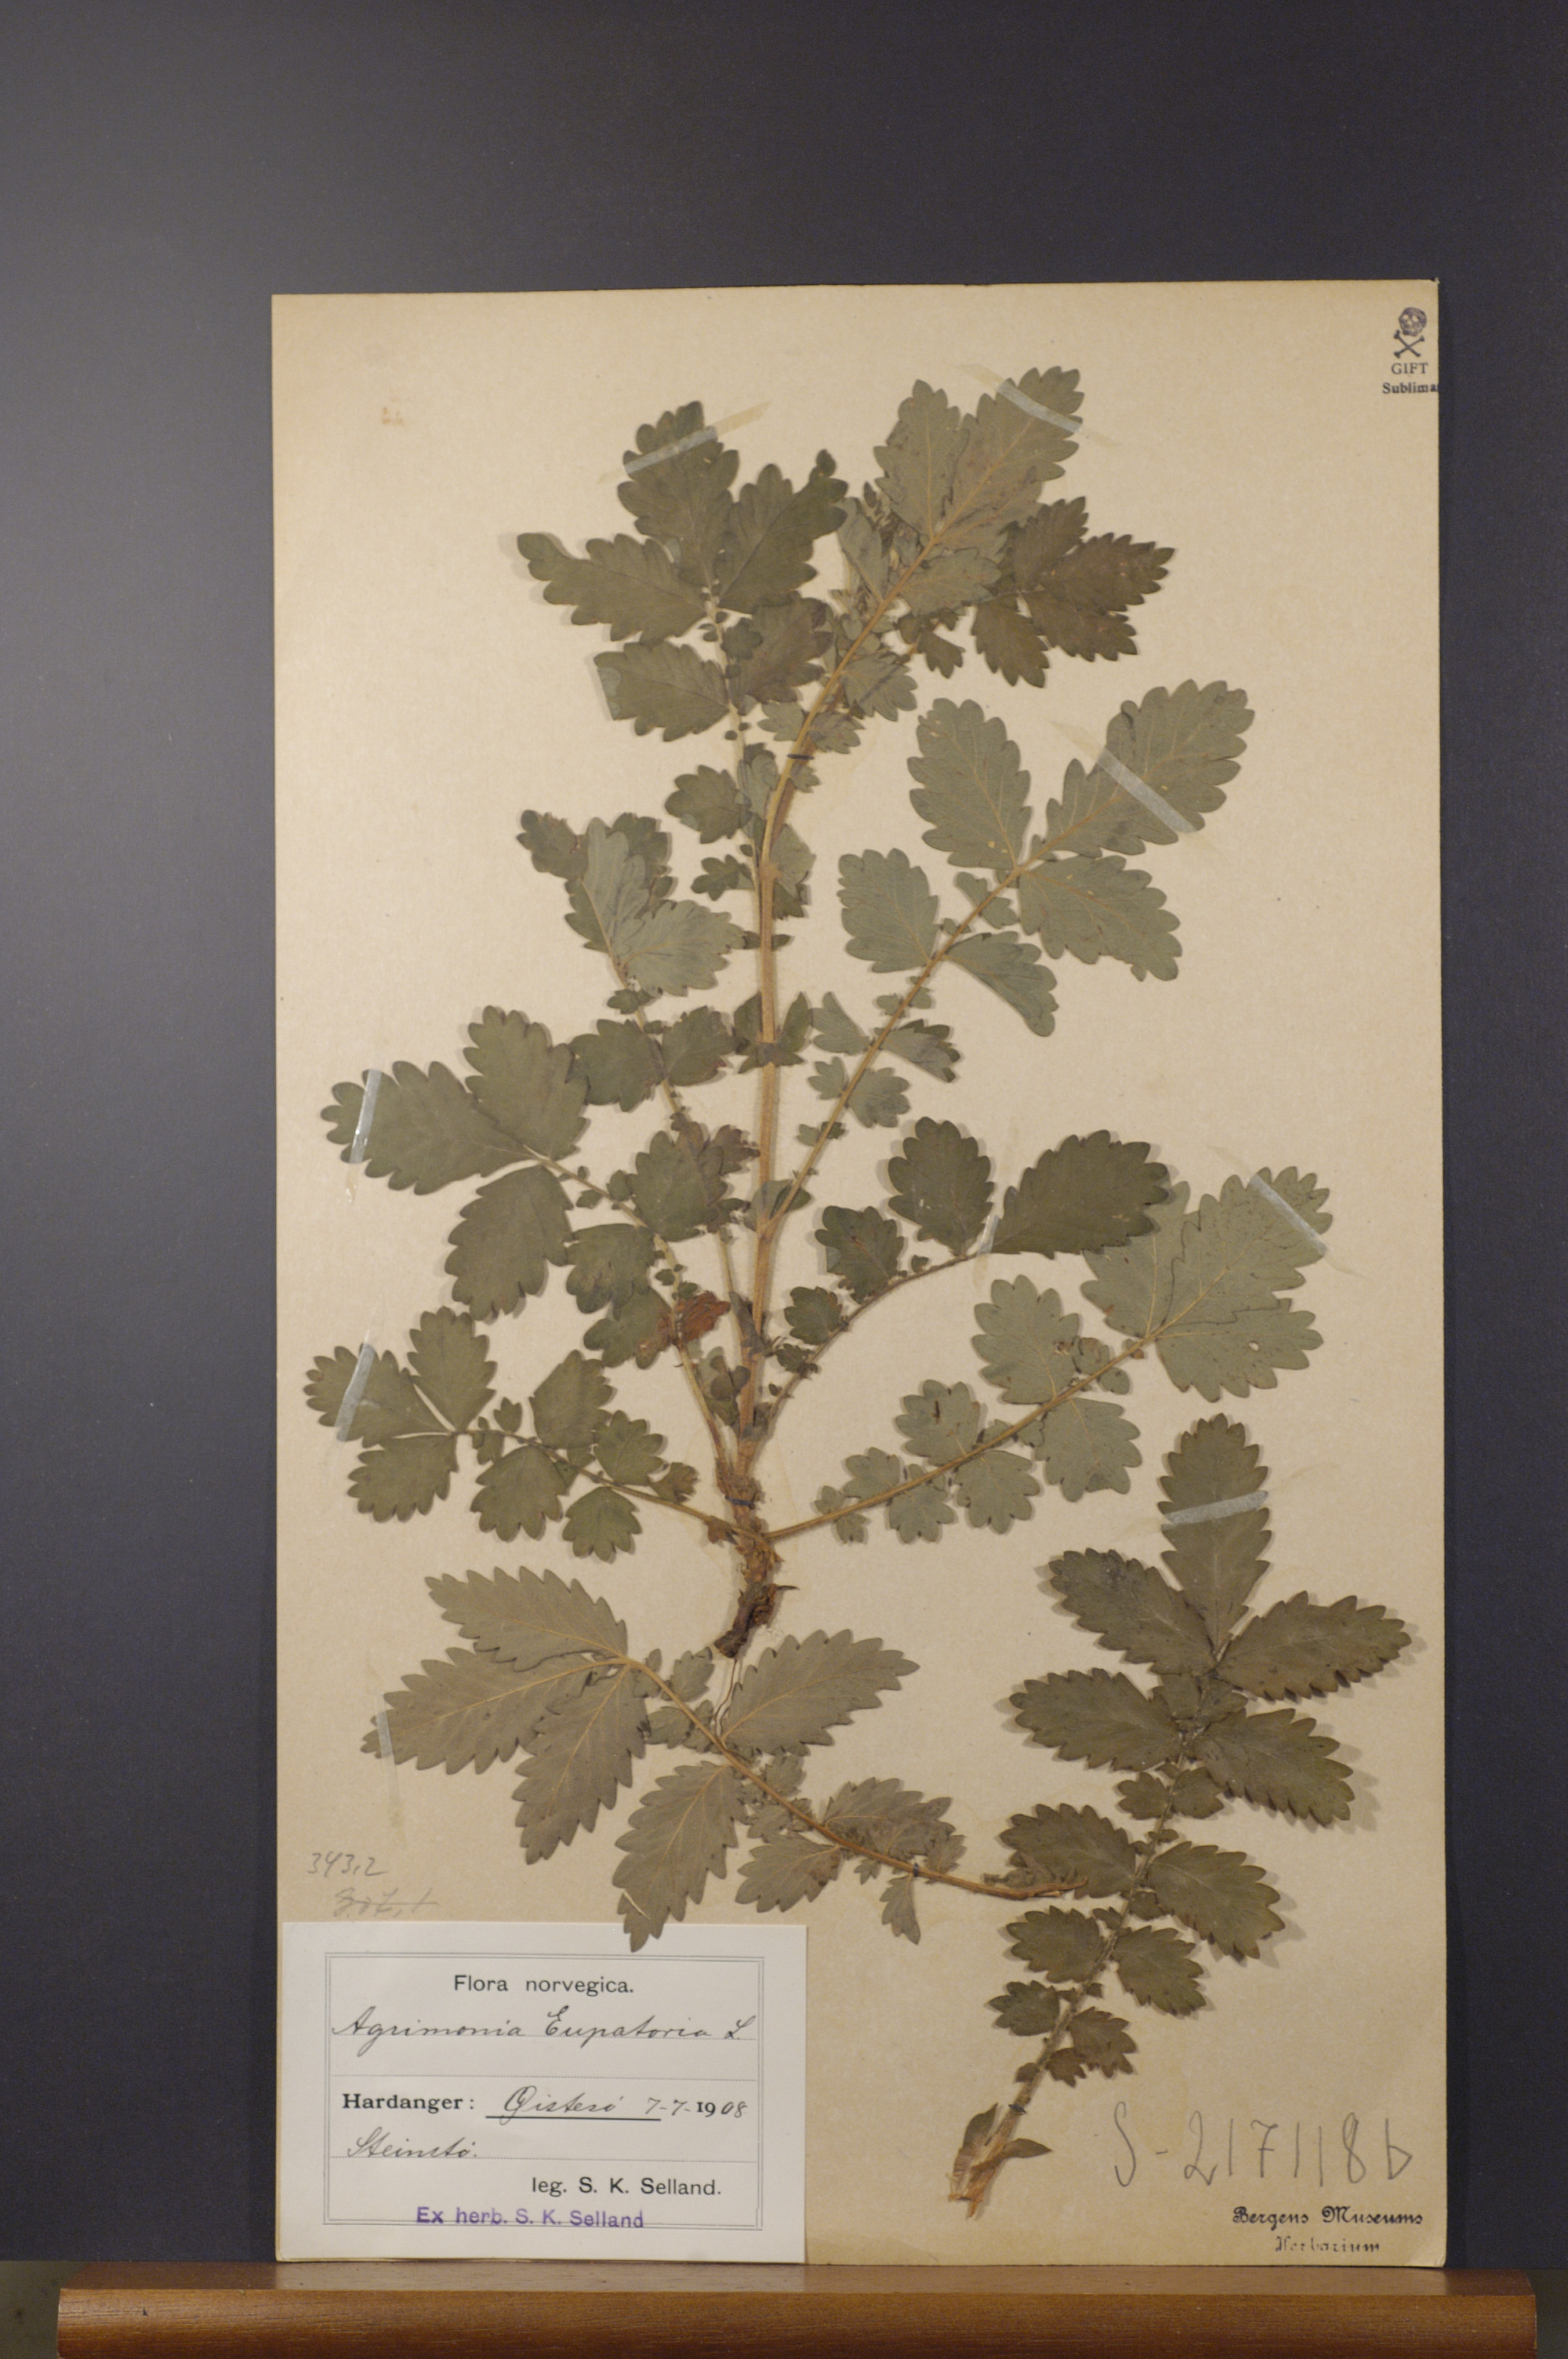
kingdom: Plantae
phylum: Tracheophyta
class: Magnoliopsida
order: Rosales
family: Rosaceae
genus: Agrimonia
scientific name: Agrimonia eupatoria
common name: Agrimony
